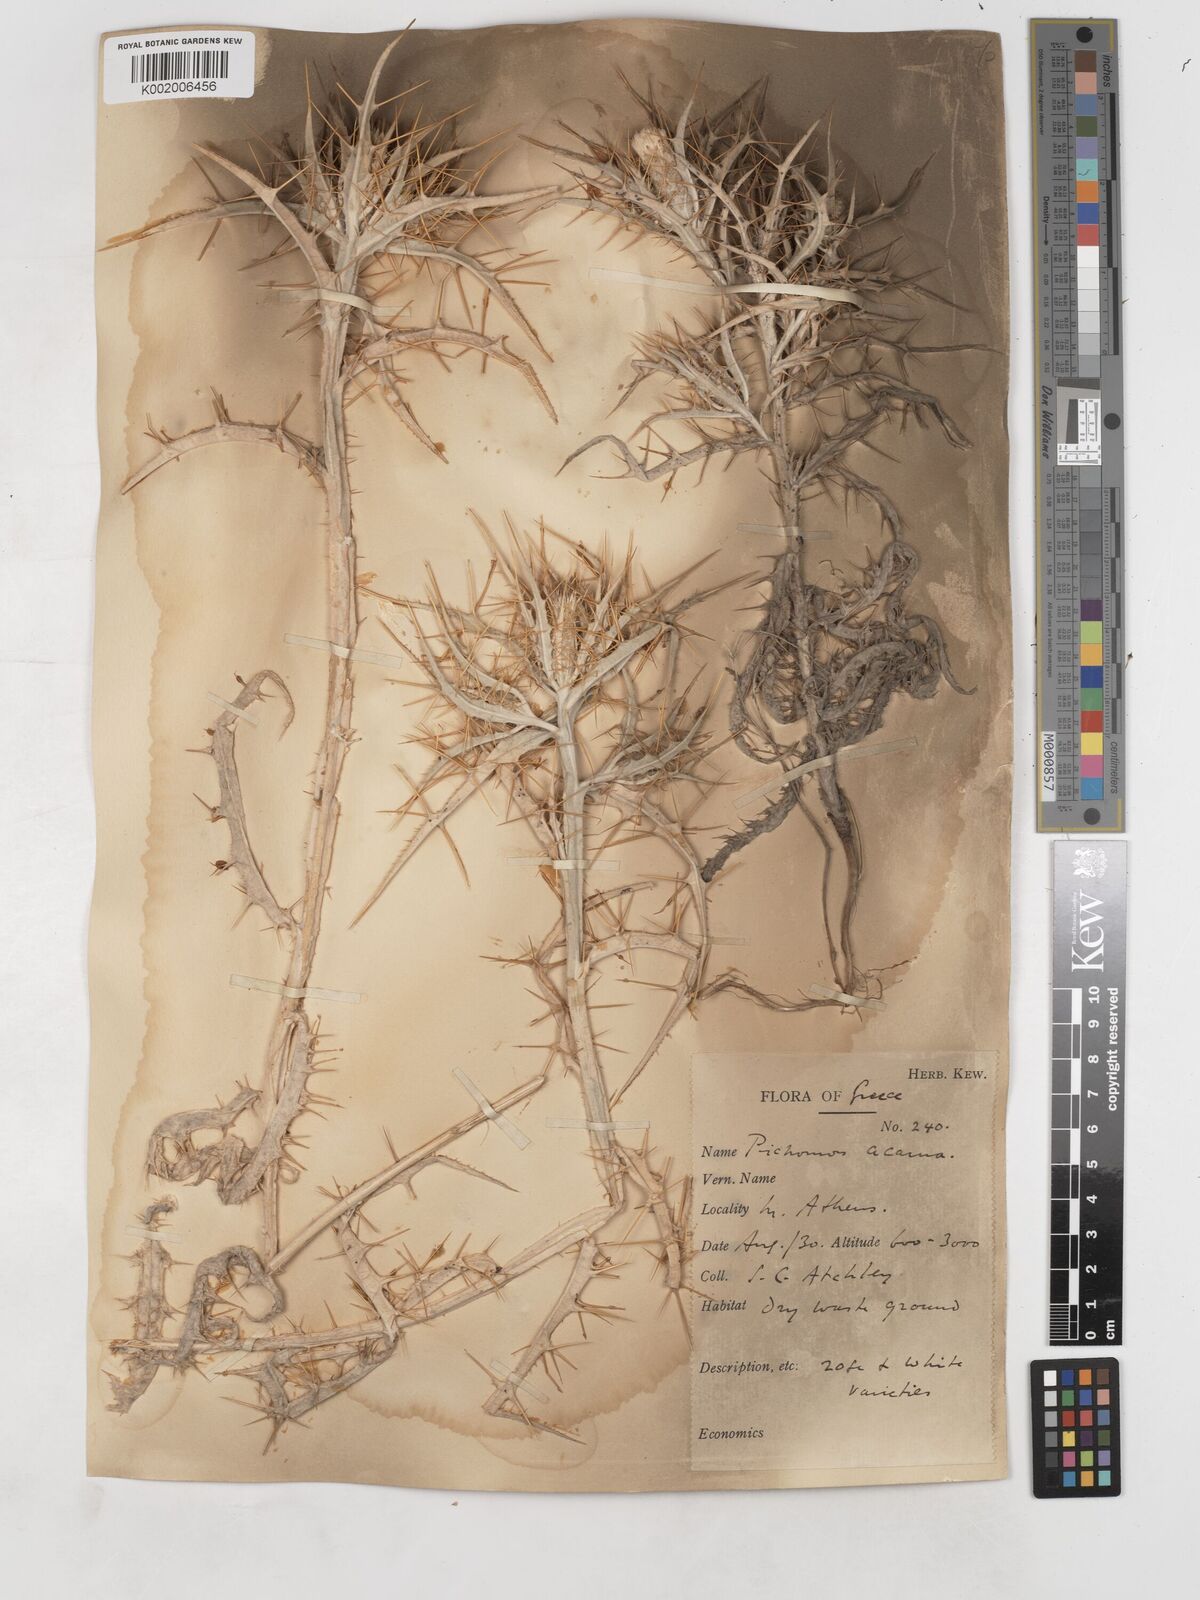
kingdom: Plantae
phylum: Tracheophyta
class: Magnoliopsida
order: Asterales
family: Asteraceae
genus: Picnomon
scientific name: Picnomon acarna
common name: Soldier thistle
